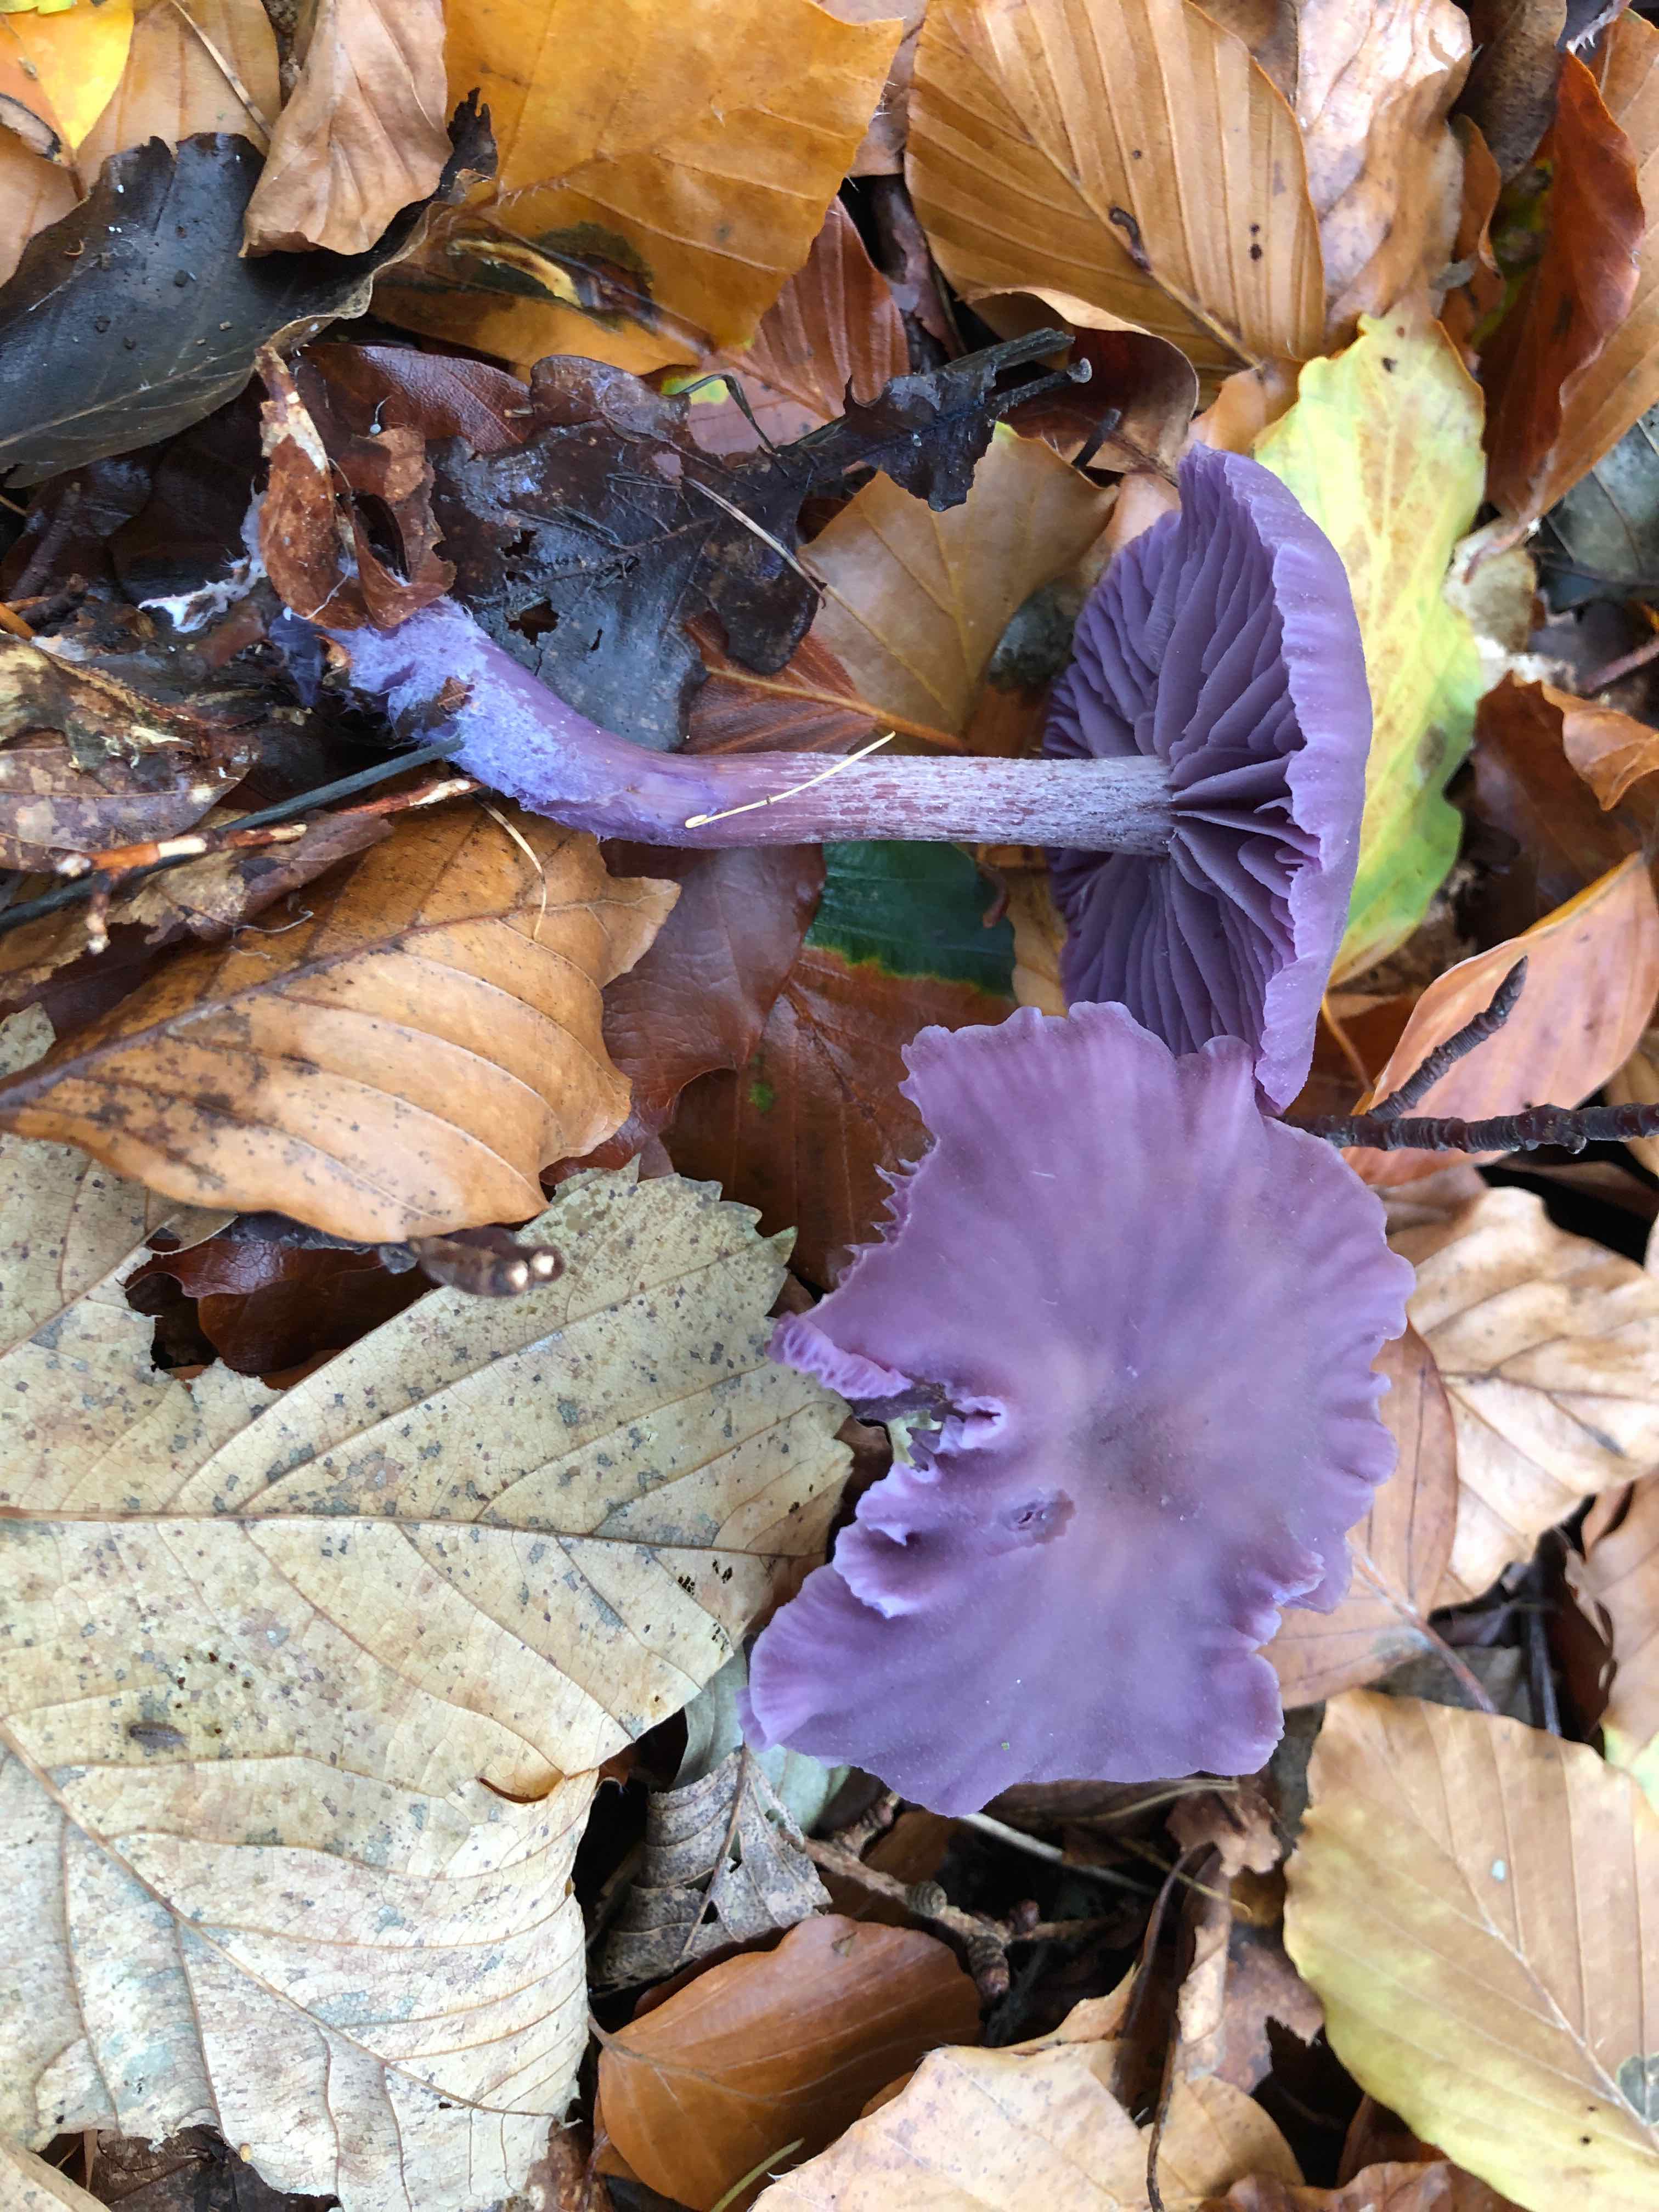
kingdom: Fungi
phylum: Basidiomycota
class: Agaricomycetes
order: Agaricales
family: Hydnangiaceae
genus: Laccaria
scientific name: Laccaria amethystina
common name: violet ametysthat
